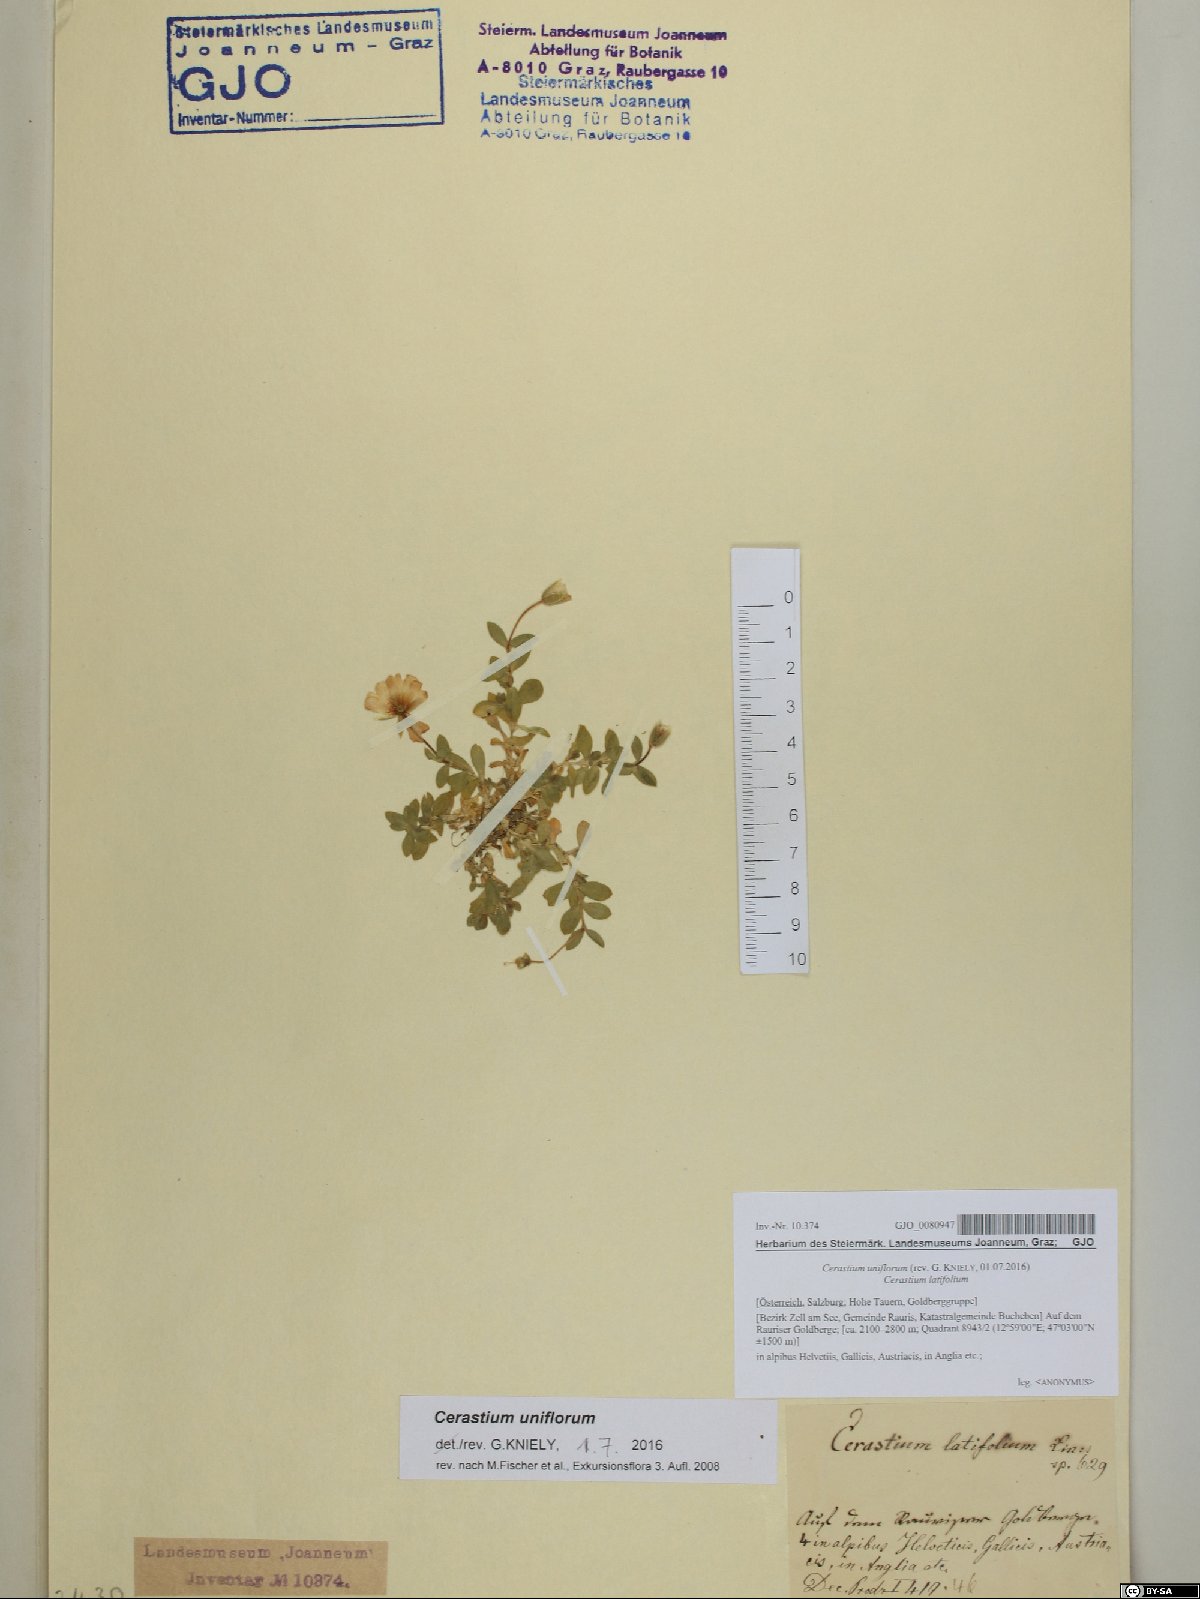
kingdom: Plantae
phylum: Tracheophyta
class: Magnoliopsida
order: Caryophyllales
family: Caryophyllaceae
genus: Cerastium
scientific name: Cerastium uniflorum
